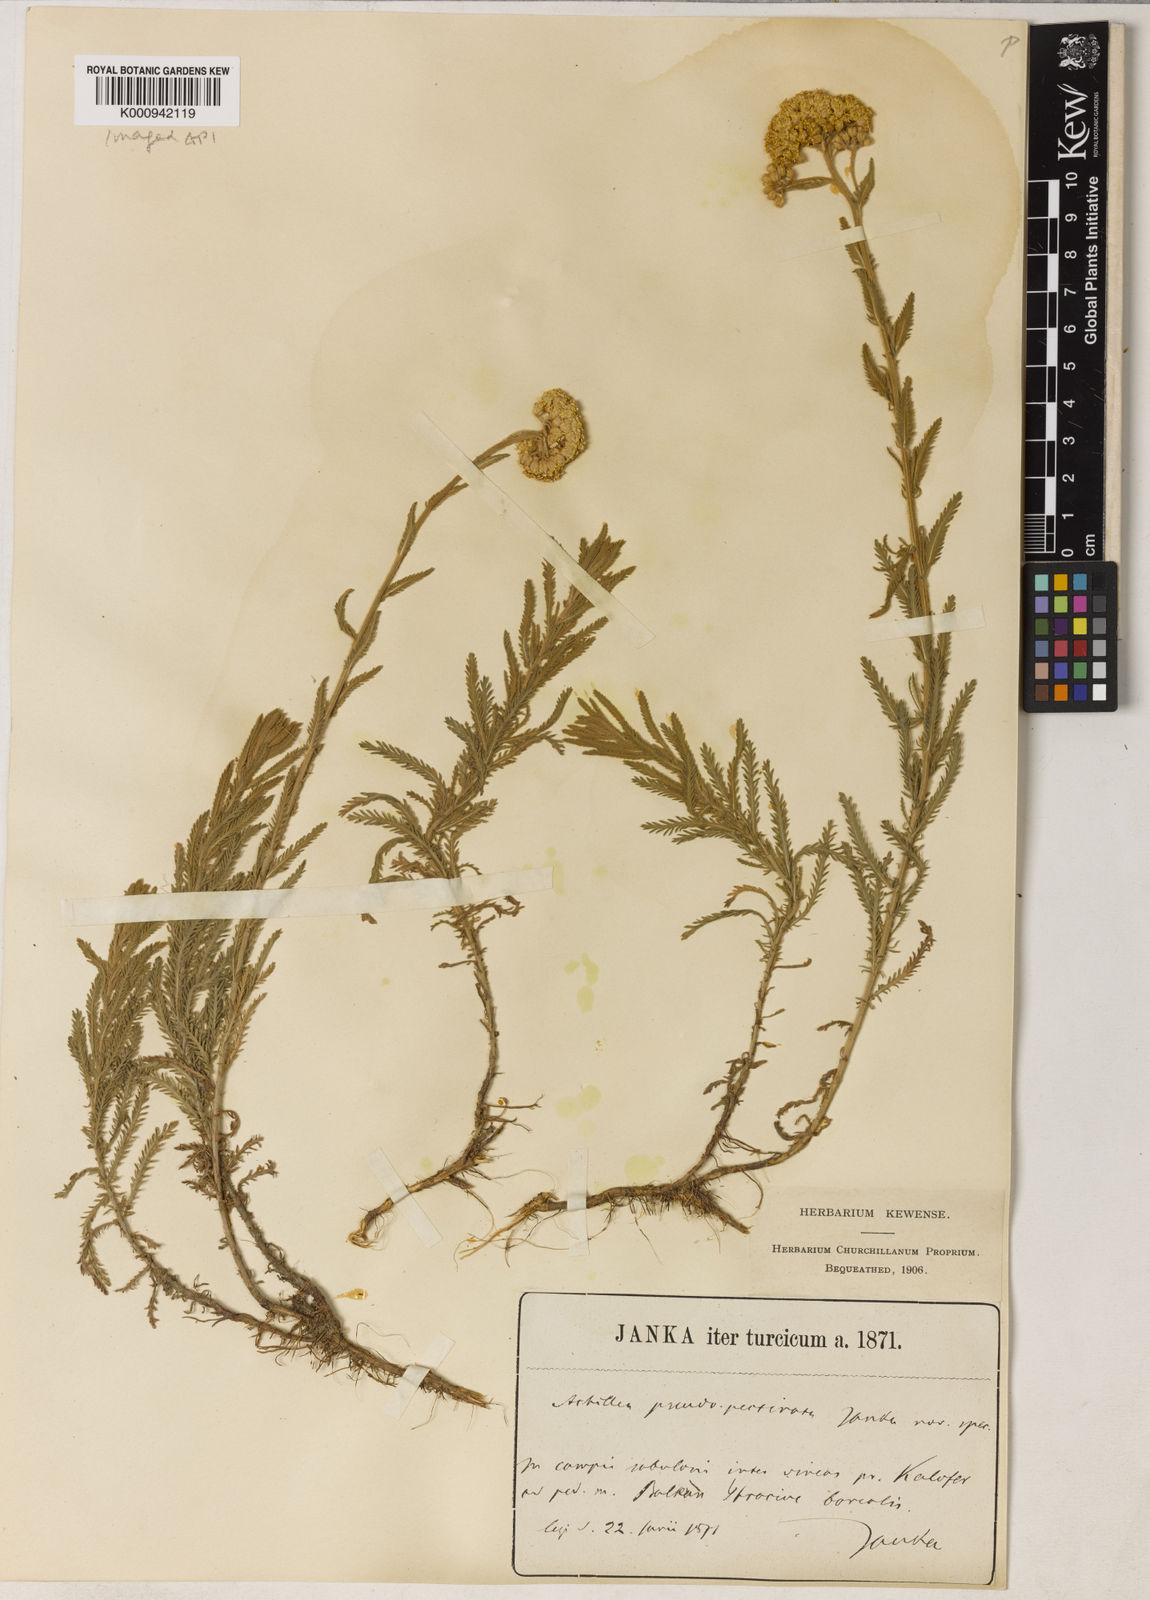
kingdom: Plantae
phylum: Tracheophyta
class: Magnoliopsida
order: Asterales
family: Asteraceae
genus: Achillea
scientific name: Achillea pseudopectinata
